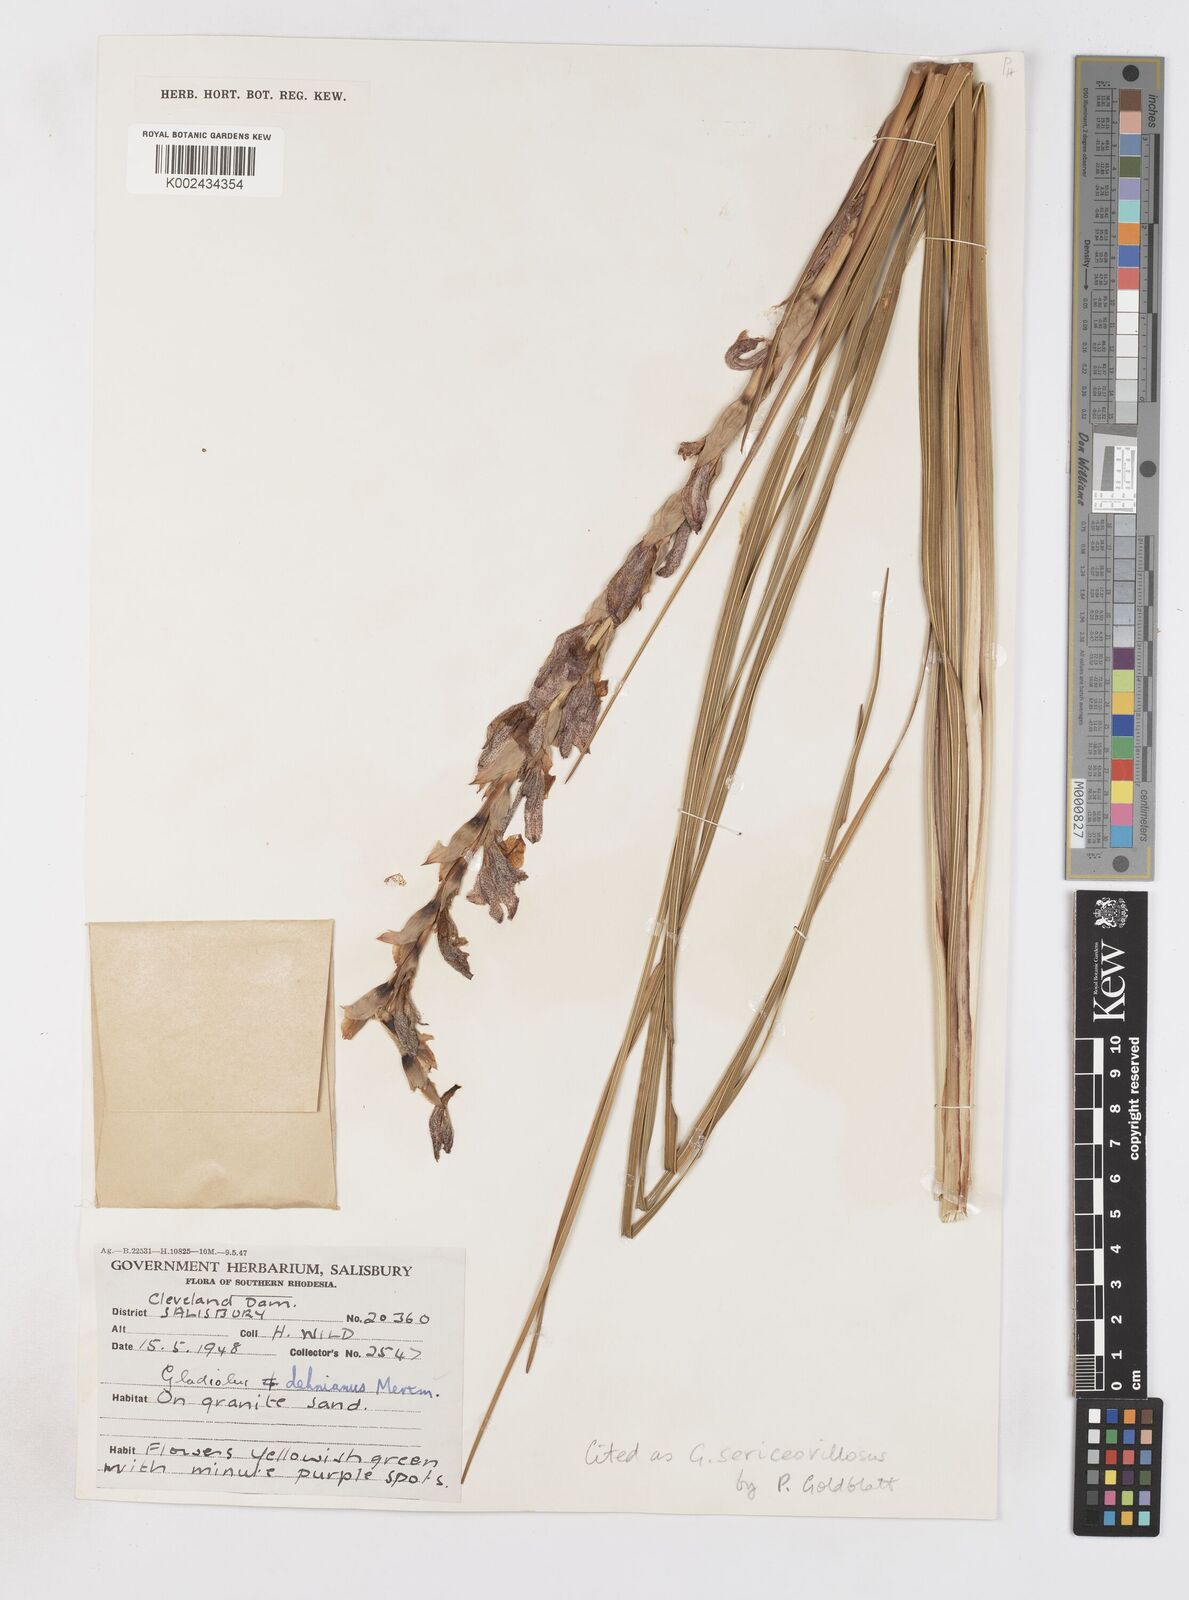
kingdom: Plantae
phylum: Tracheophyta
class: Liliopsida
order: Asparagales
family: Iridaceae
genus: Gladiolus
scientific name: Gladiolus sericeovillosus
